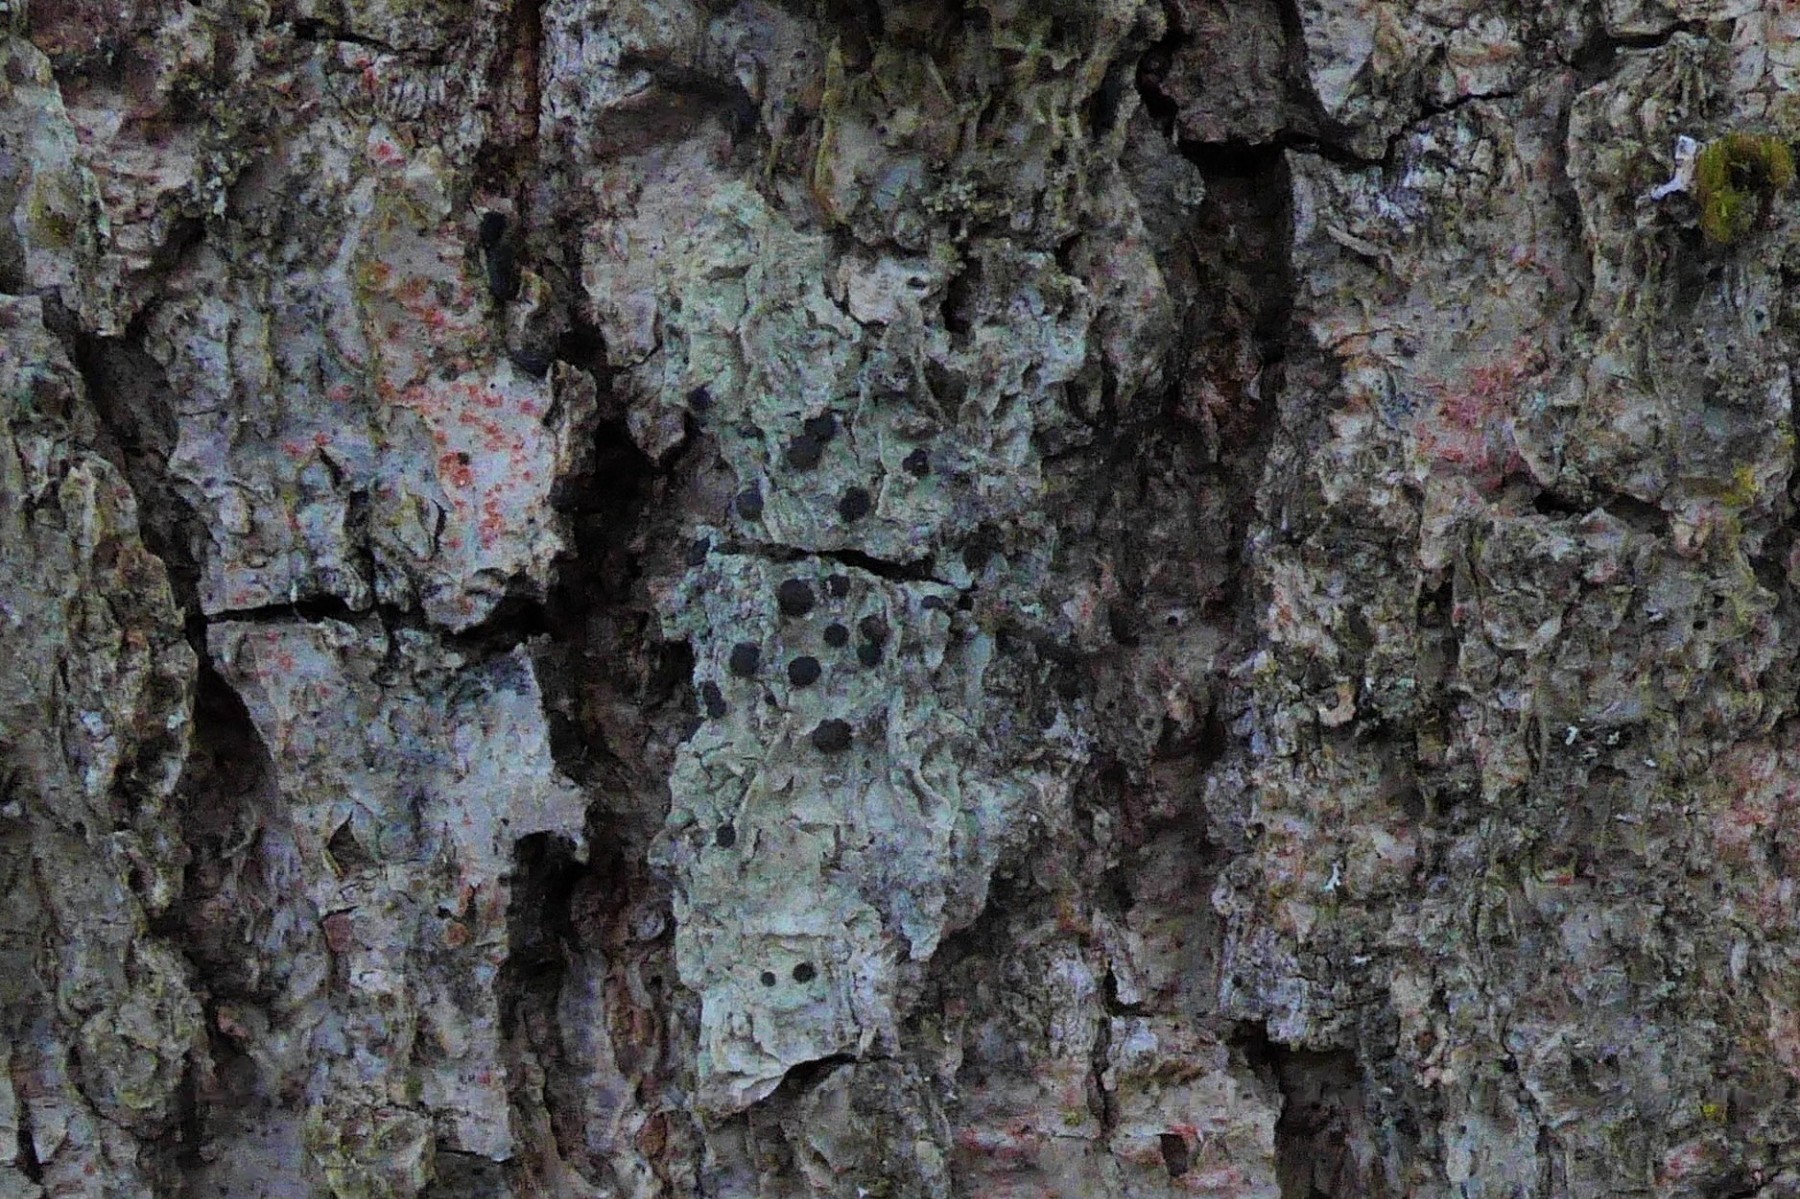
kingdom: Fungi
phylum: Ascomycota
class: Lecanoromycetes
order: Lecanorales
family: Lecanoraceae
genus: Lecidella
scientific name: Lecidella elaeochroma
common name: grågrøn skivelav
